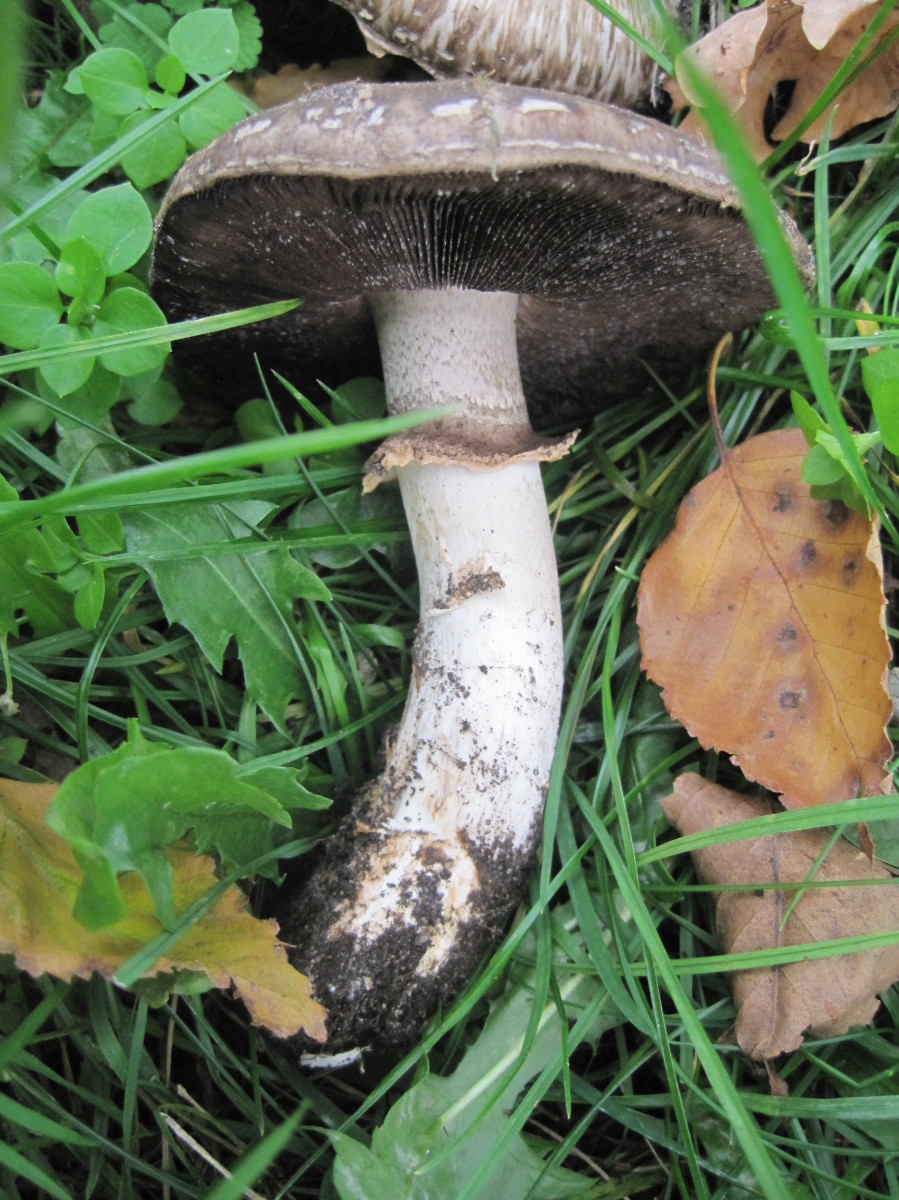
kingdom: Fungi
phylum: Basidiomycota
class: Agaricomycetes
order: Agaricales
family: Agaricaceae
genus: Agaricus
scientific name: Agaricus subperonatus
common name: knippe-champignon
